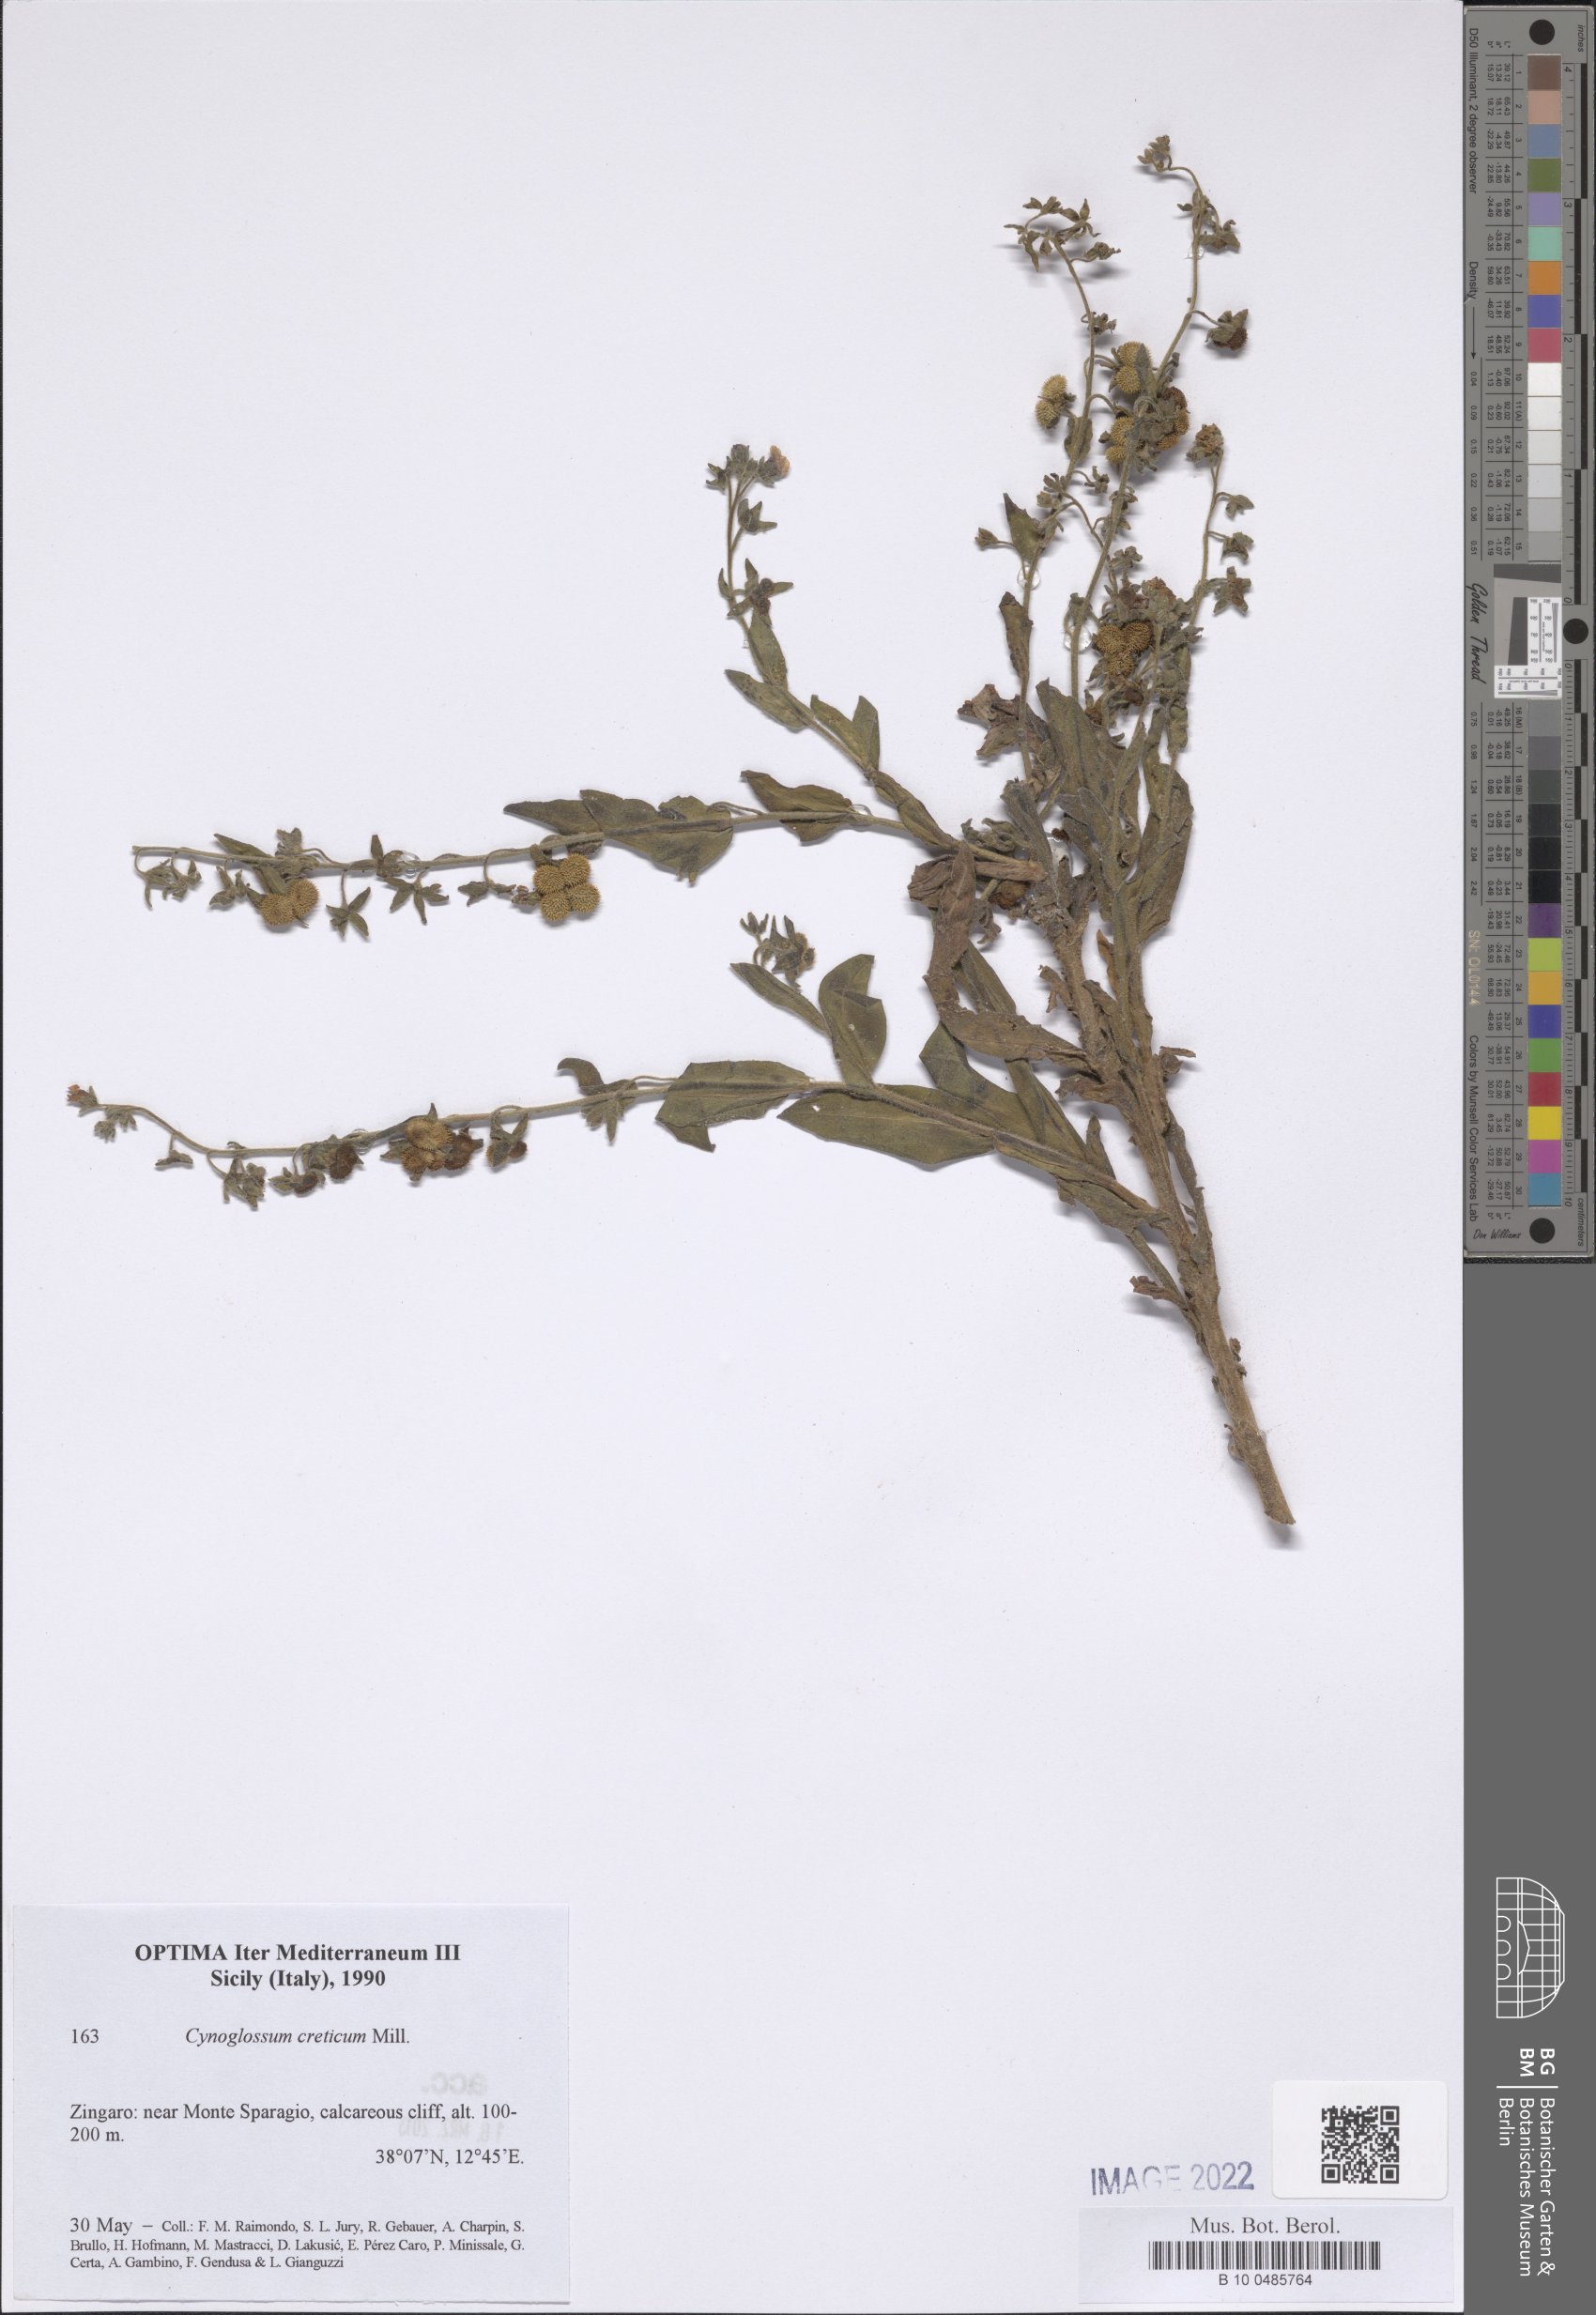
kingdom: Plantae
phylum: Tracheophyta
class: Magnoliopsida
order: Boraginales
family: Boraginaceae
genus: Cynoglossum
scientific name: Cynoglossum creticum
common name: Blue hound's tongue
